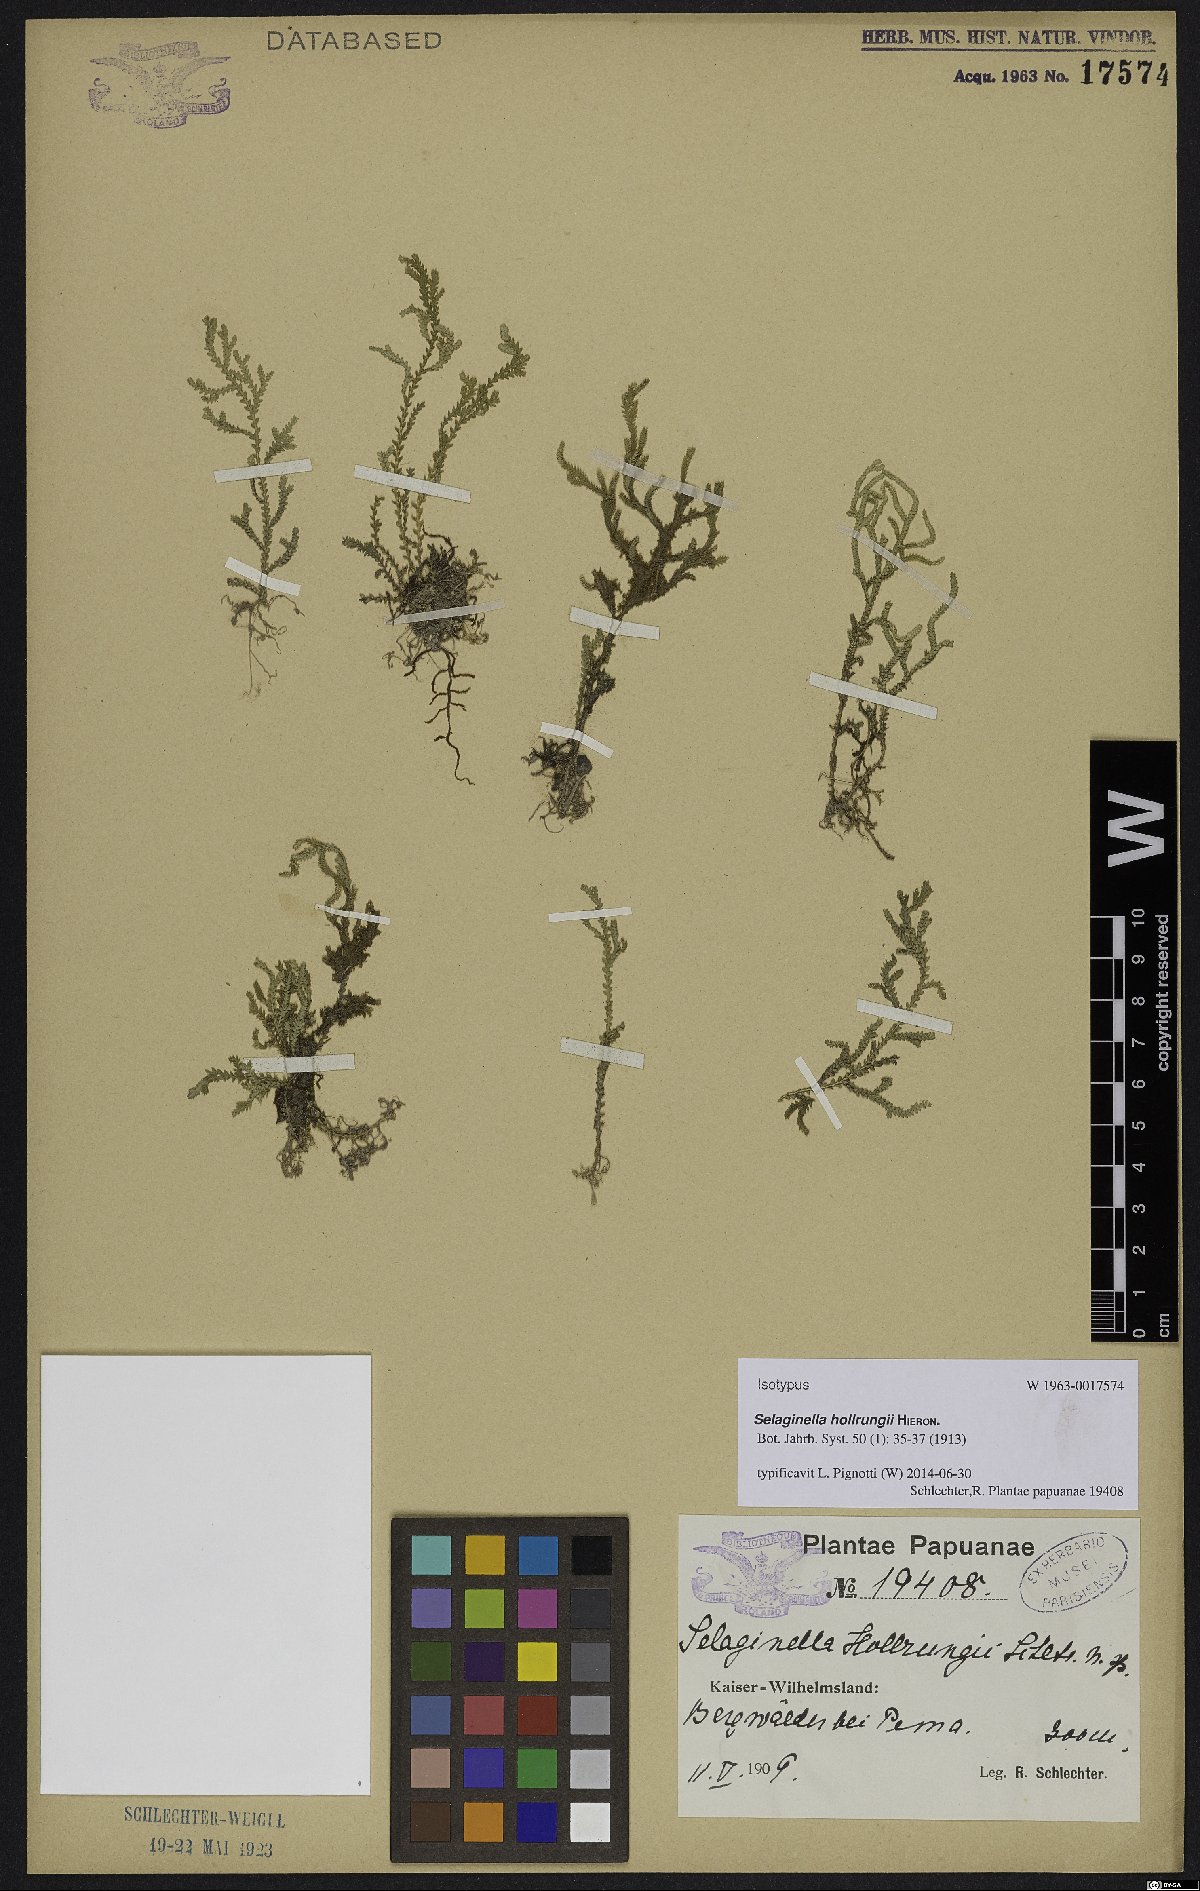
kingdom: Plantae
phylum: Tracheophyta
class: Lycopodiopsida
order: Selaginellales
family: Selaginellaceae
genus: Selaginella
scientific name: Selaginella hollrungii
